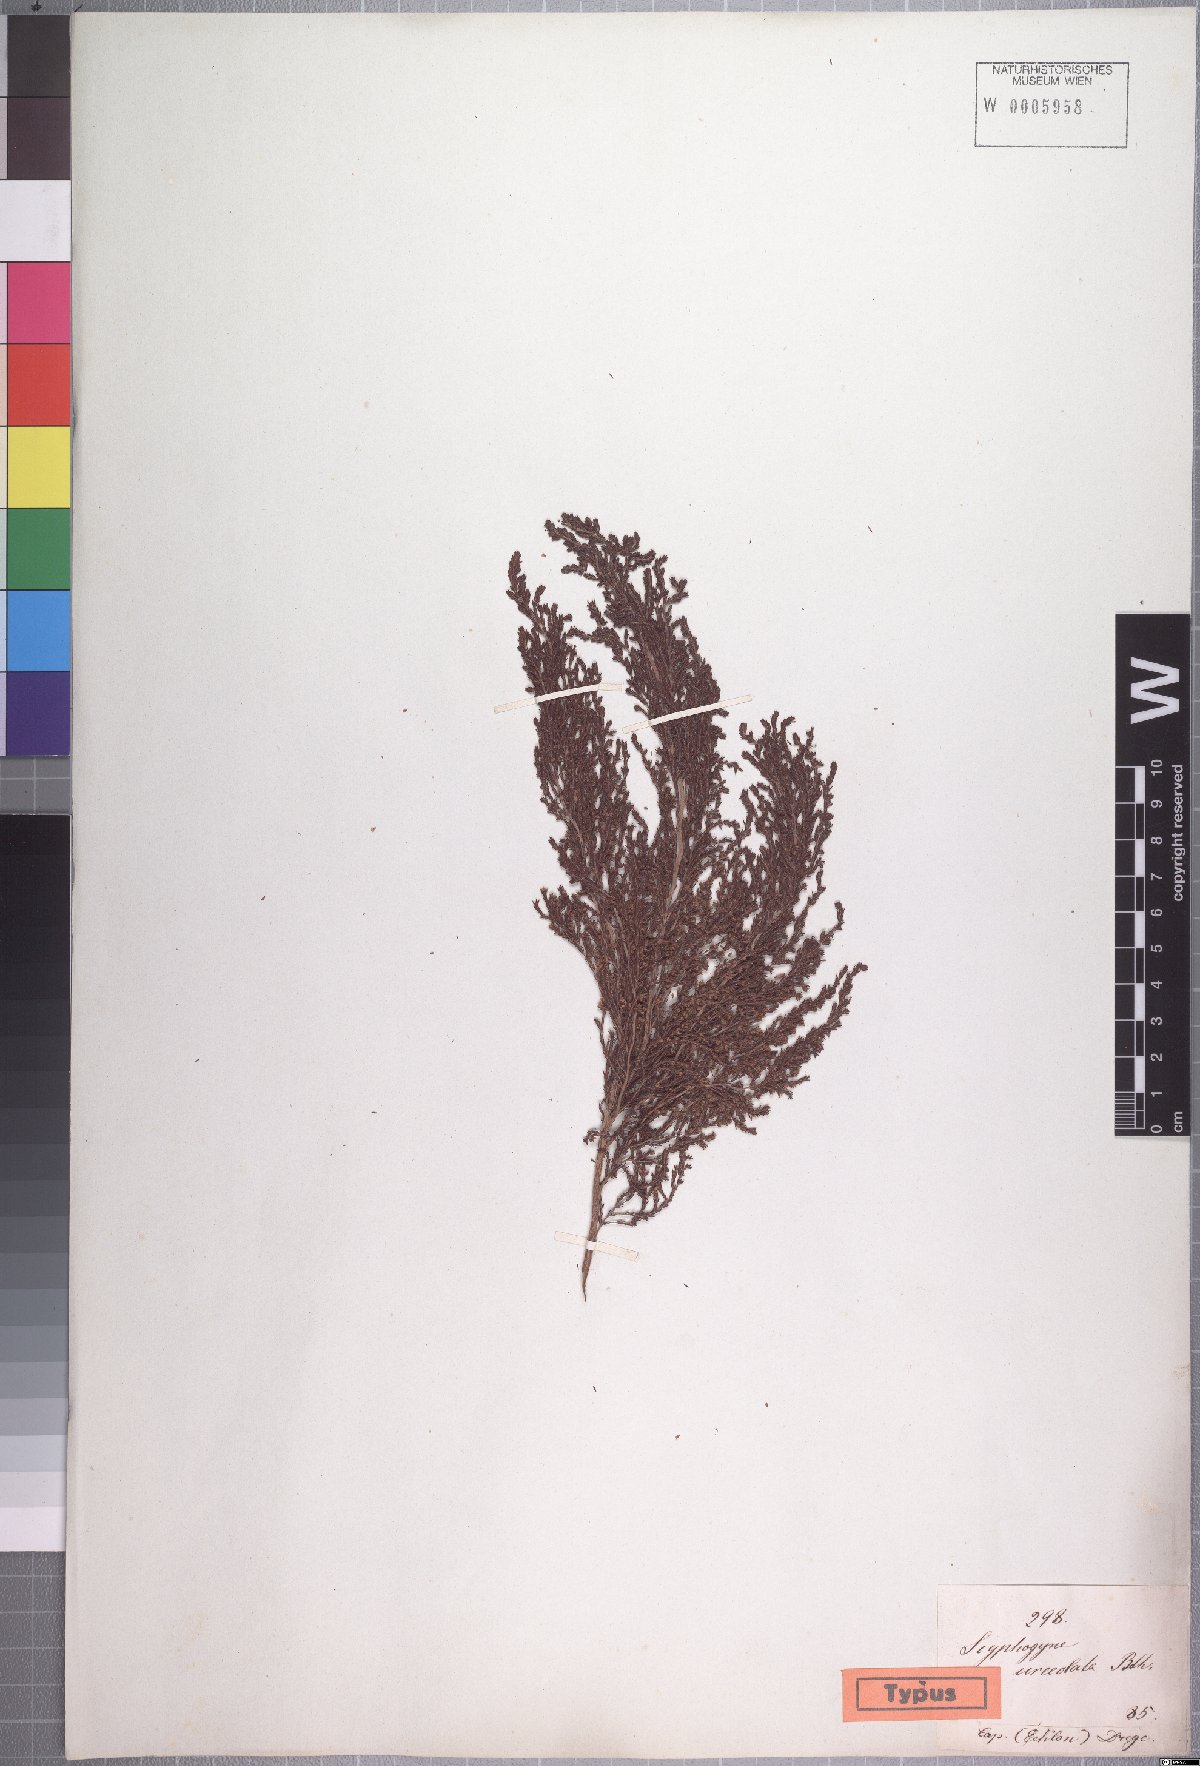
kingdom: Plantae
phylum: Tracheophyta
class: Magnoliopsida
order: Ericales
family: Ericaceae
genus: Erica
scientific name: Erica urceolata
